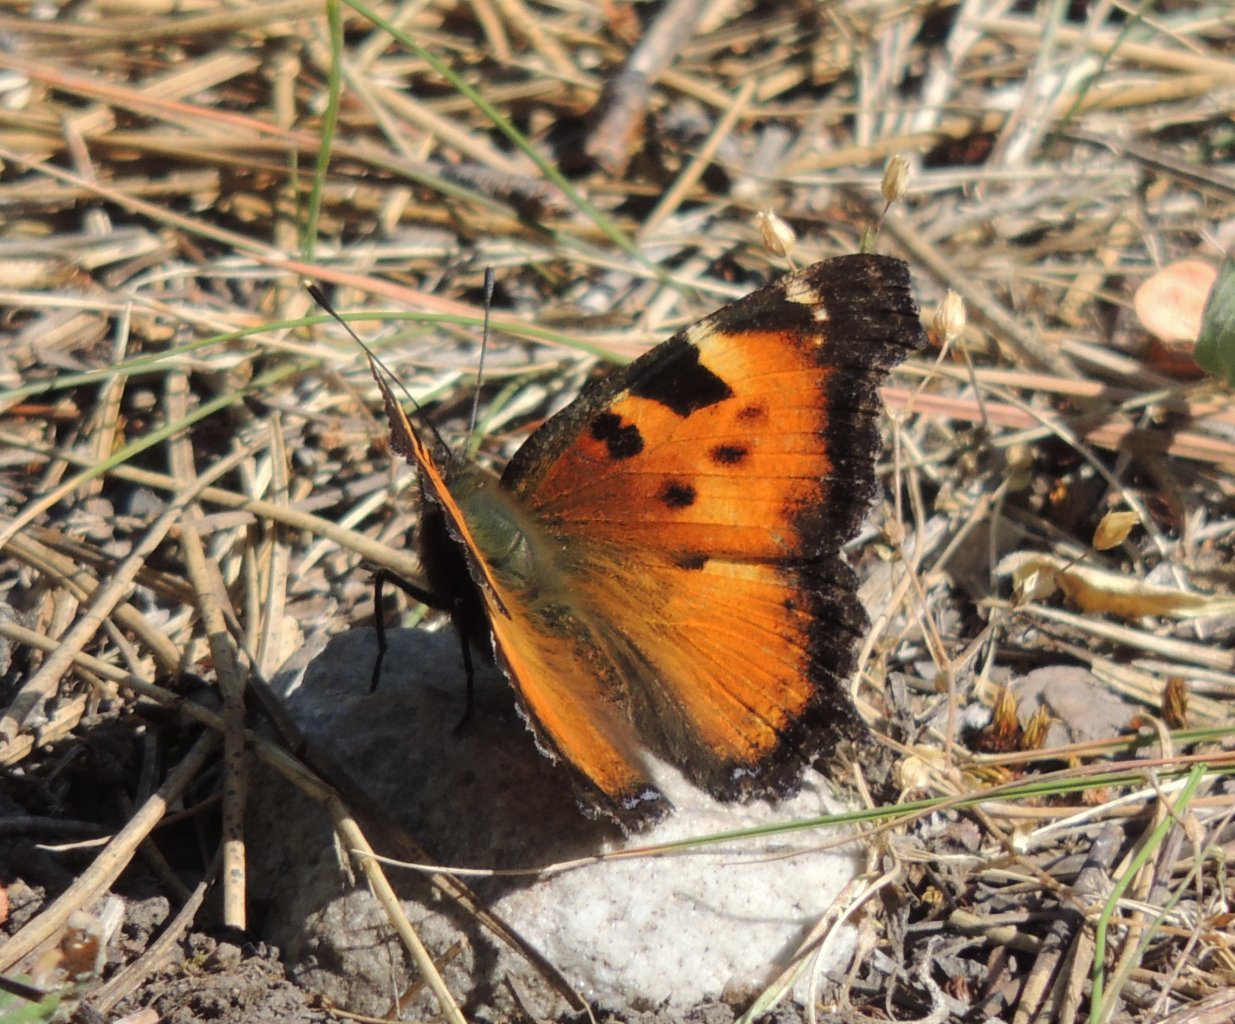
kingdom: Animalia
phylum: Arthropoda
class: Insecta
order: Lepidoptera
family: Nymphalidae
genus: Nymphalis
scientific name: Nymphalis californica
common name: California Tortoiseshell
